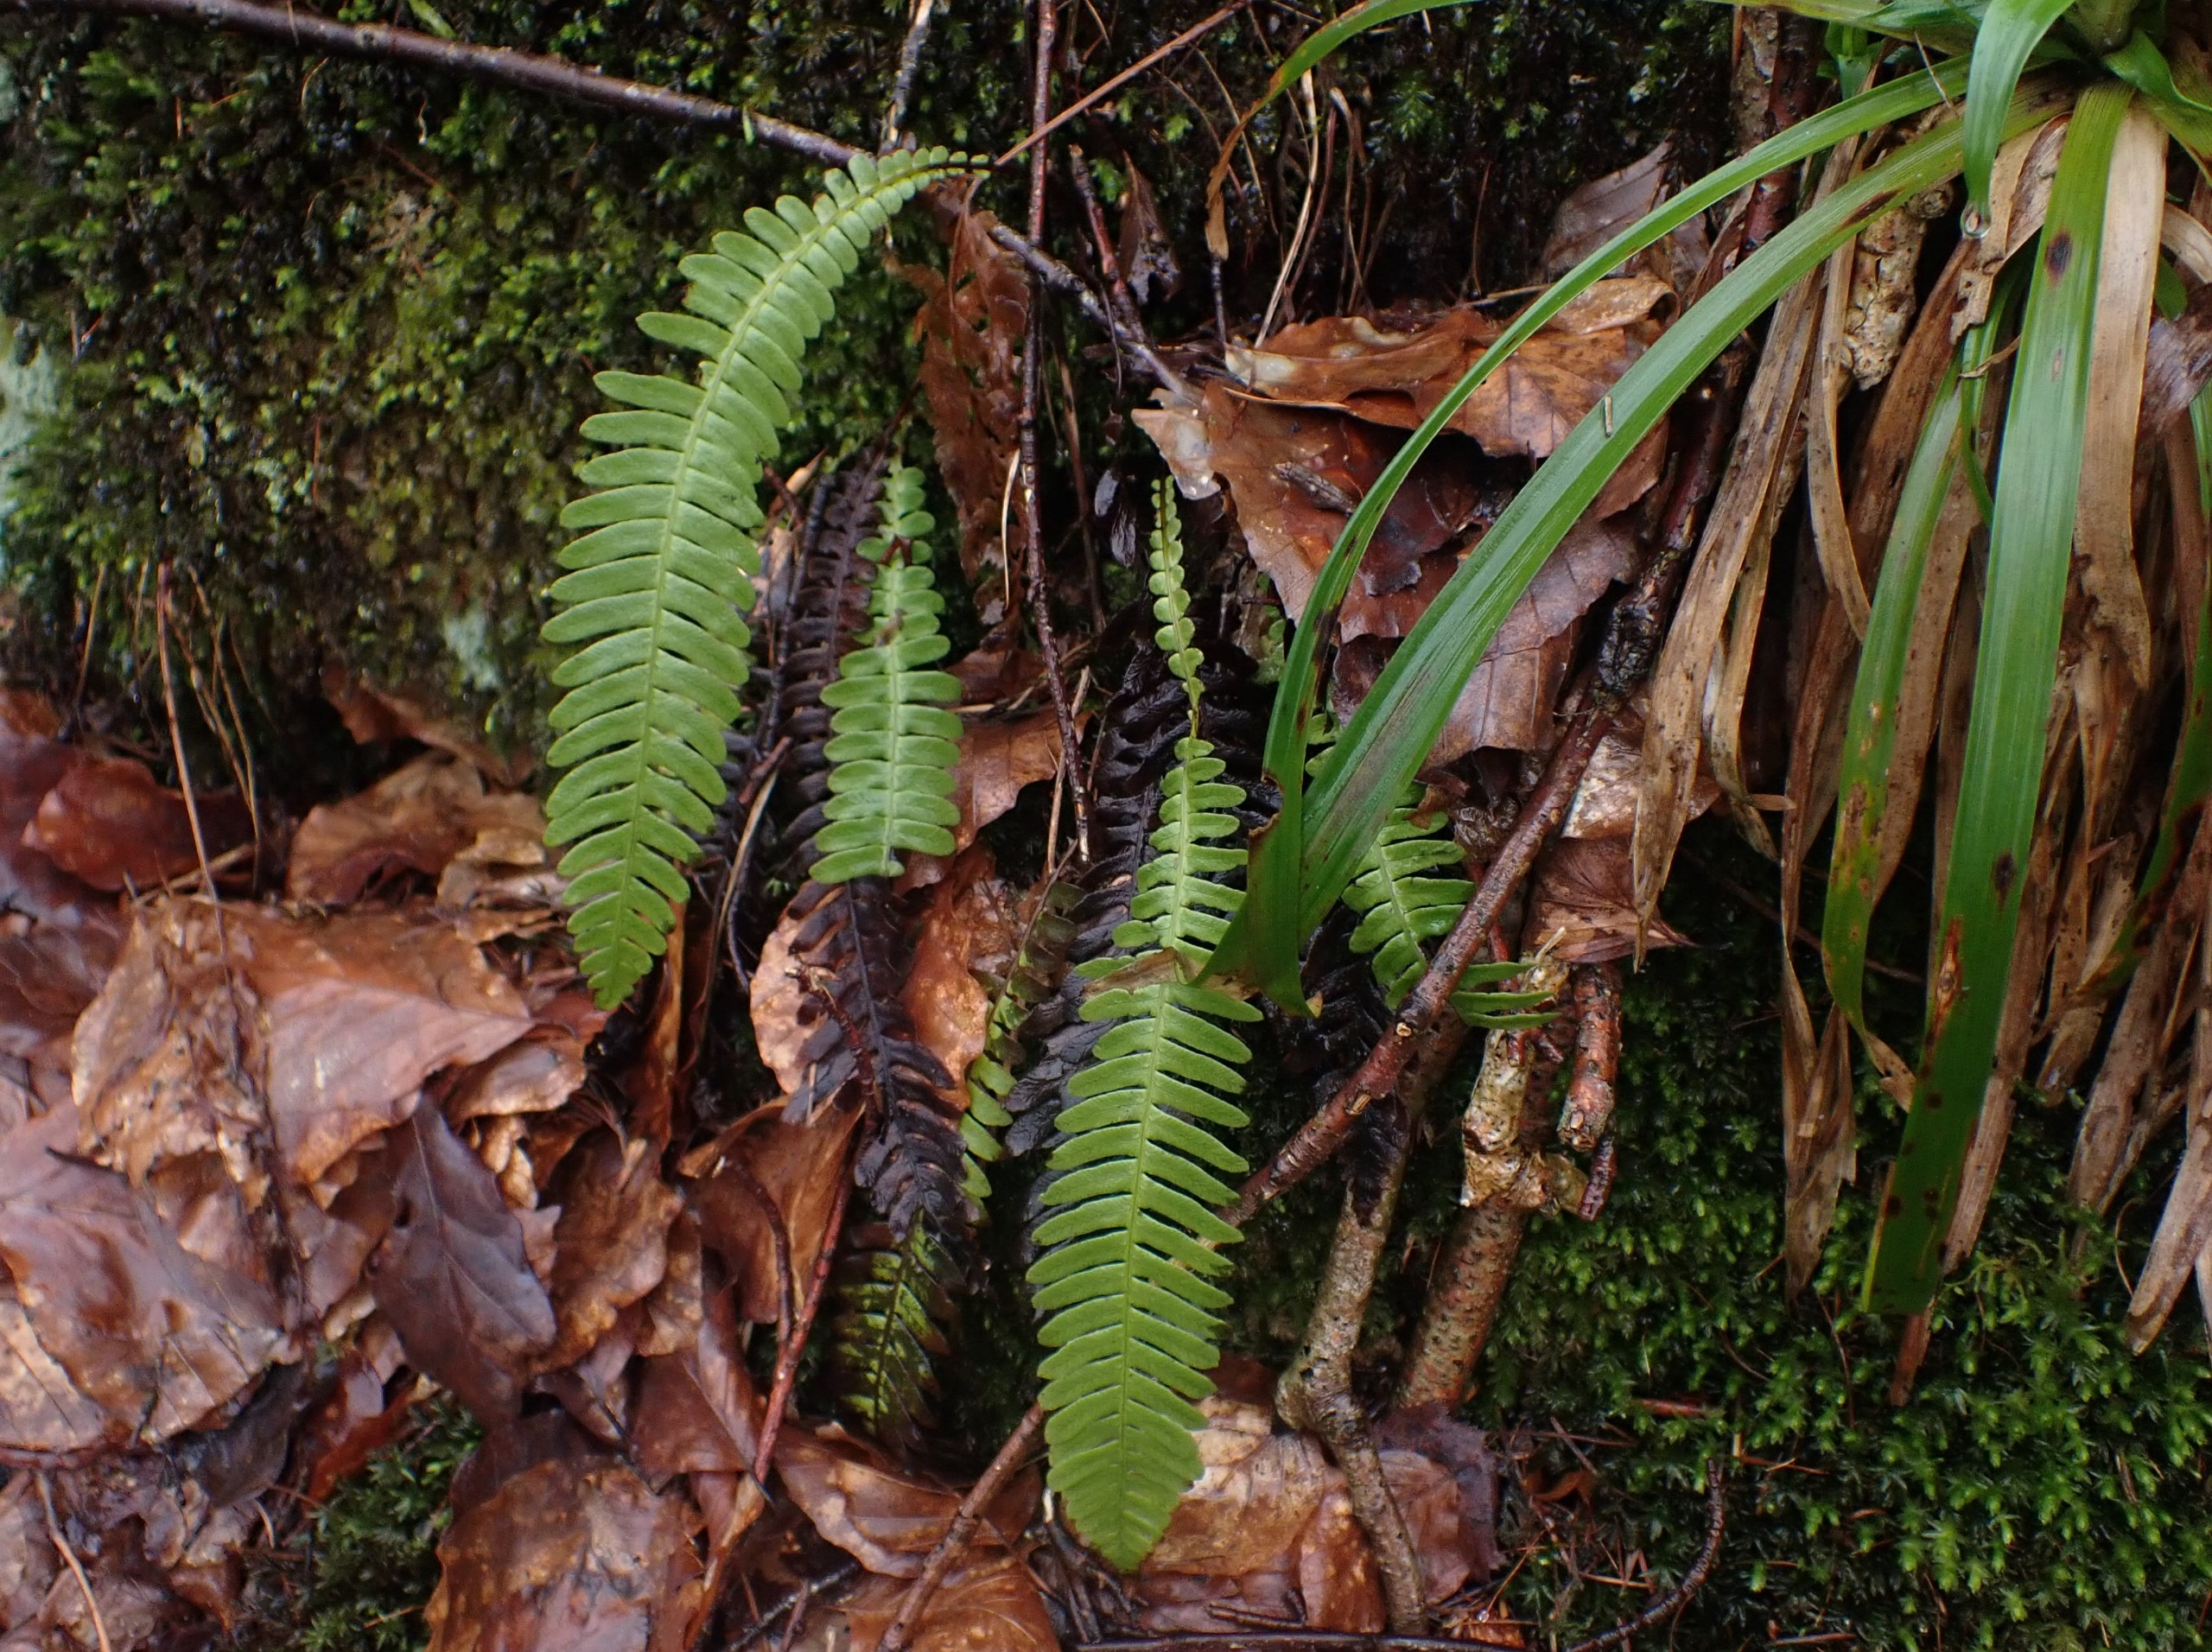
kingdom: Plantae
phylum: Tracheophyta
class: Polypodiopsida
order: Polypodiales
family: Blechnaceae
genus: Struthiopteris
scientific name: Struthiopteris spicant
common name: Kambregne
